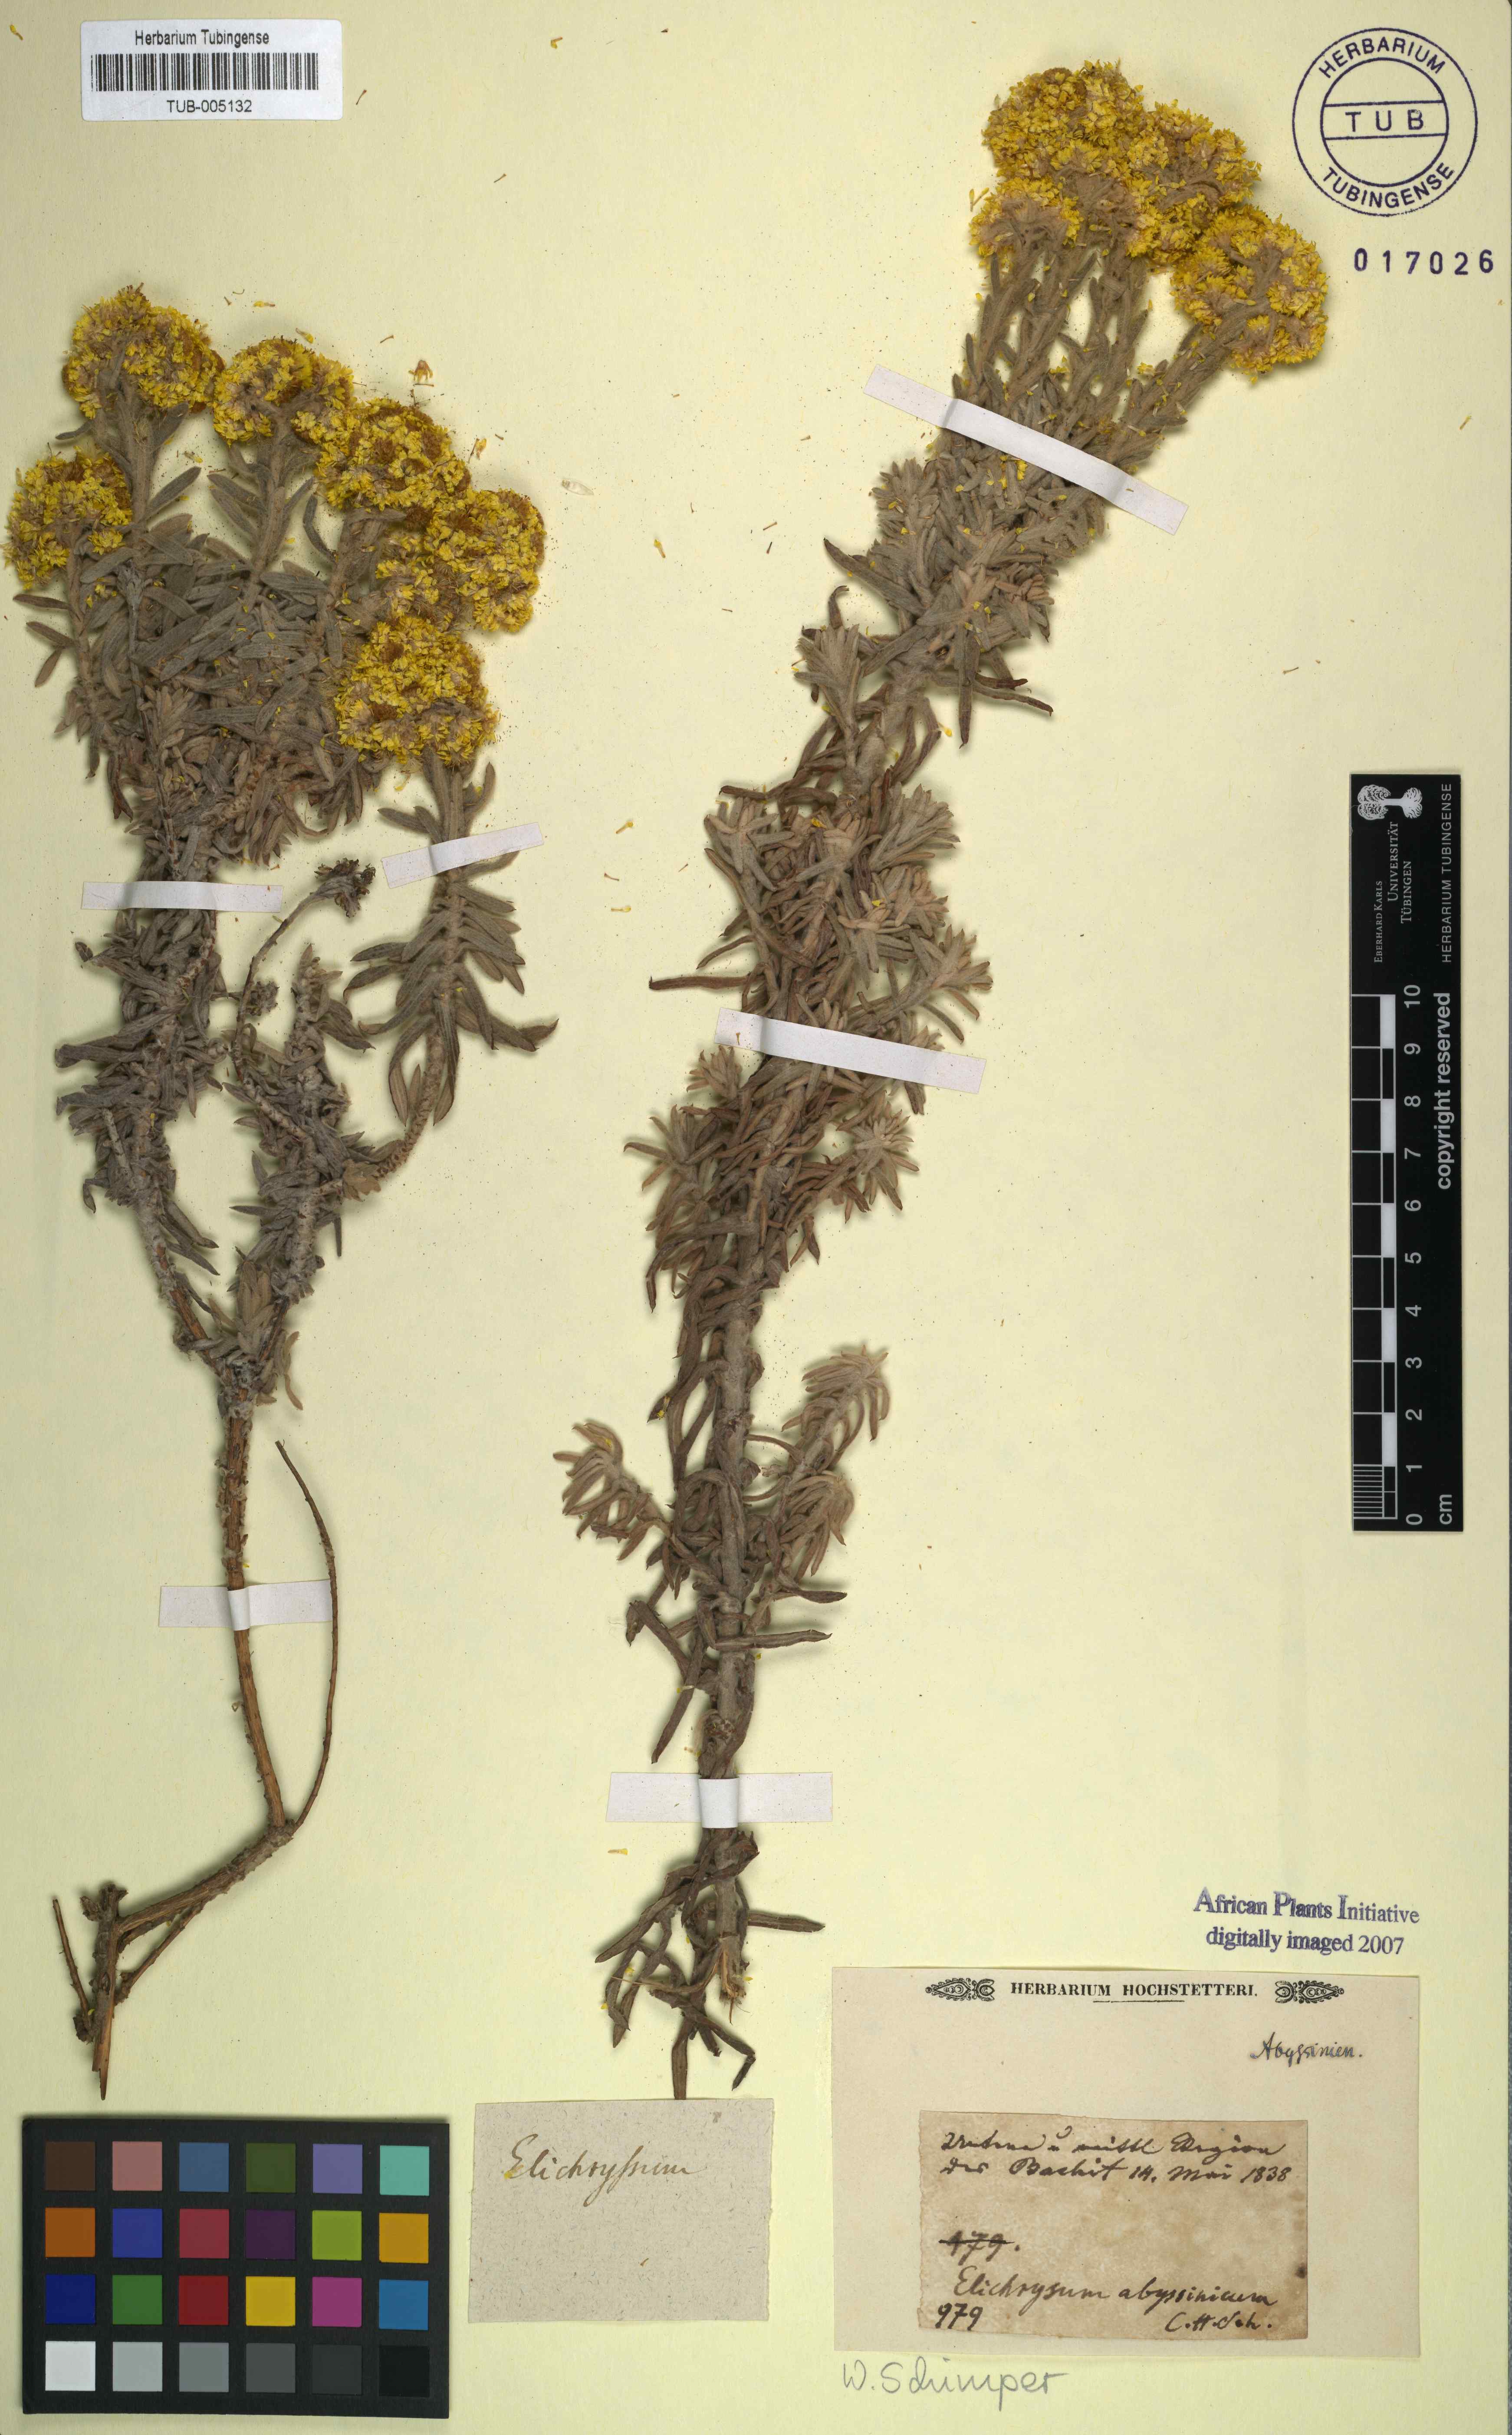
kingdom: Plantae
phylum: Tracheophyta
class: Magnoliopsida
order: Asterales
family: Asteraceae
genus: Helichrysum
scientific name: Helichrysum abyssinicum
